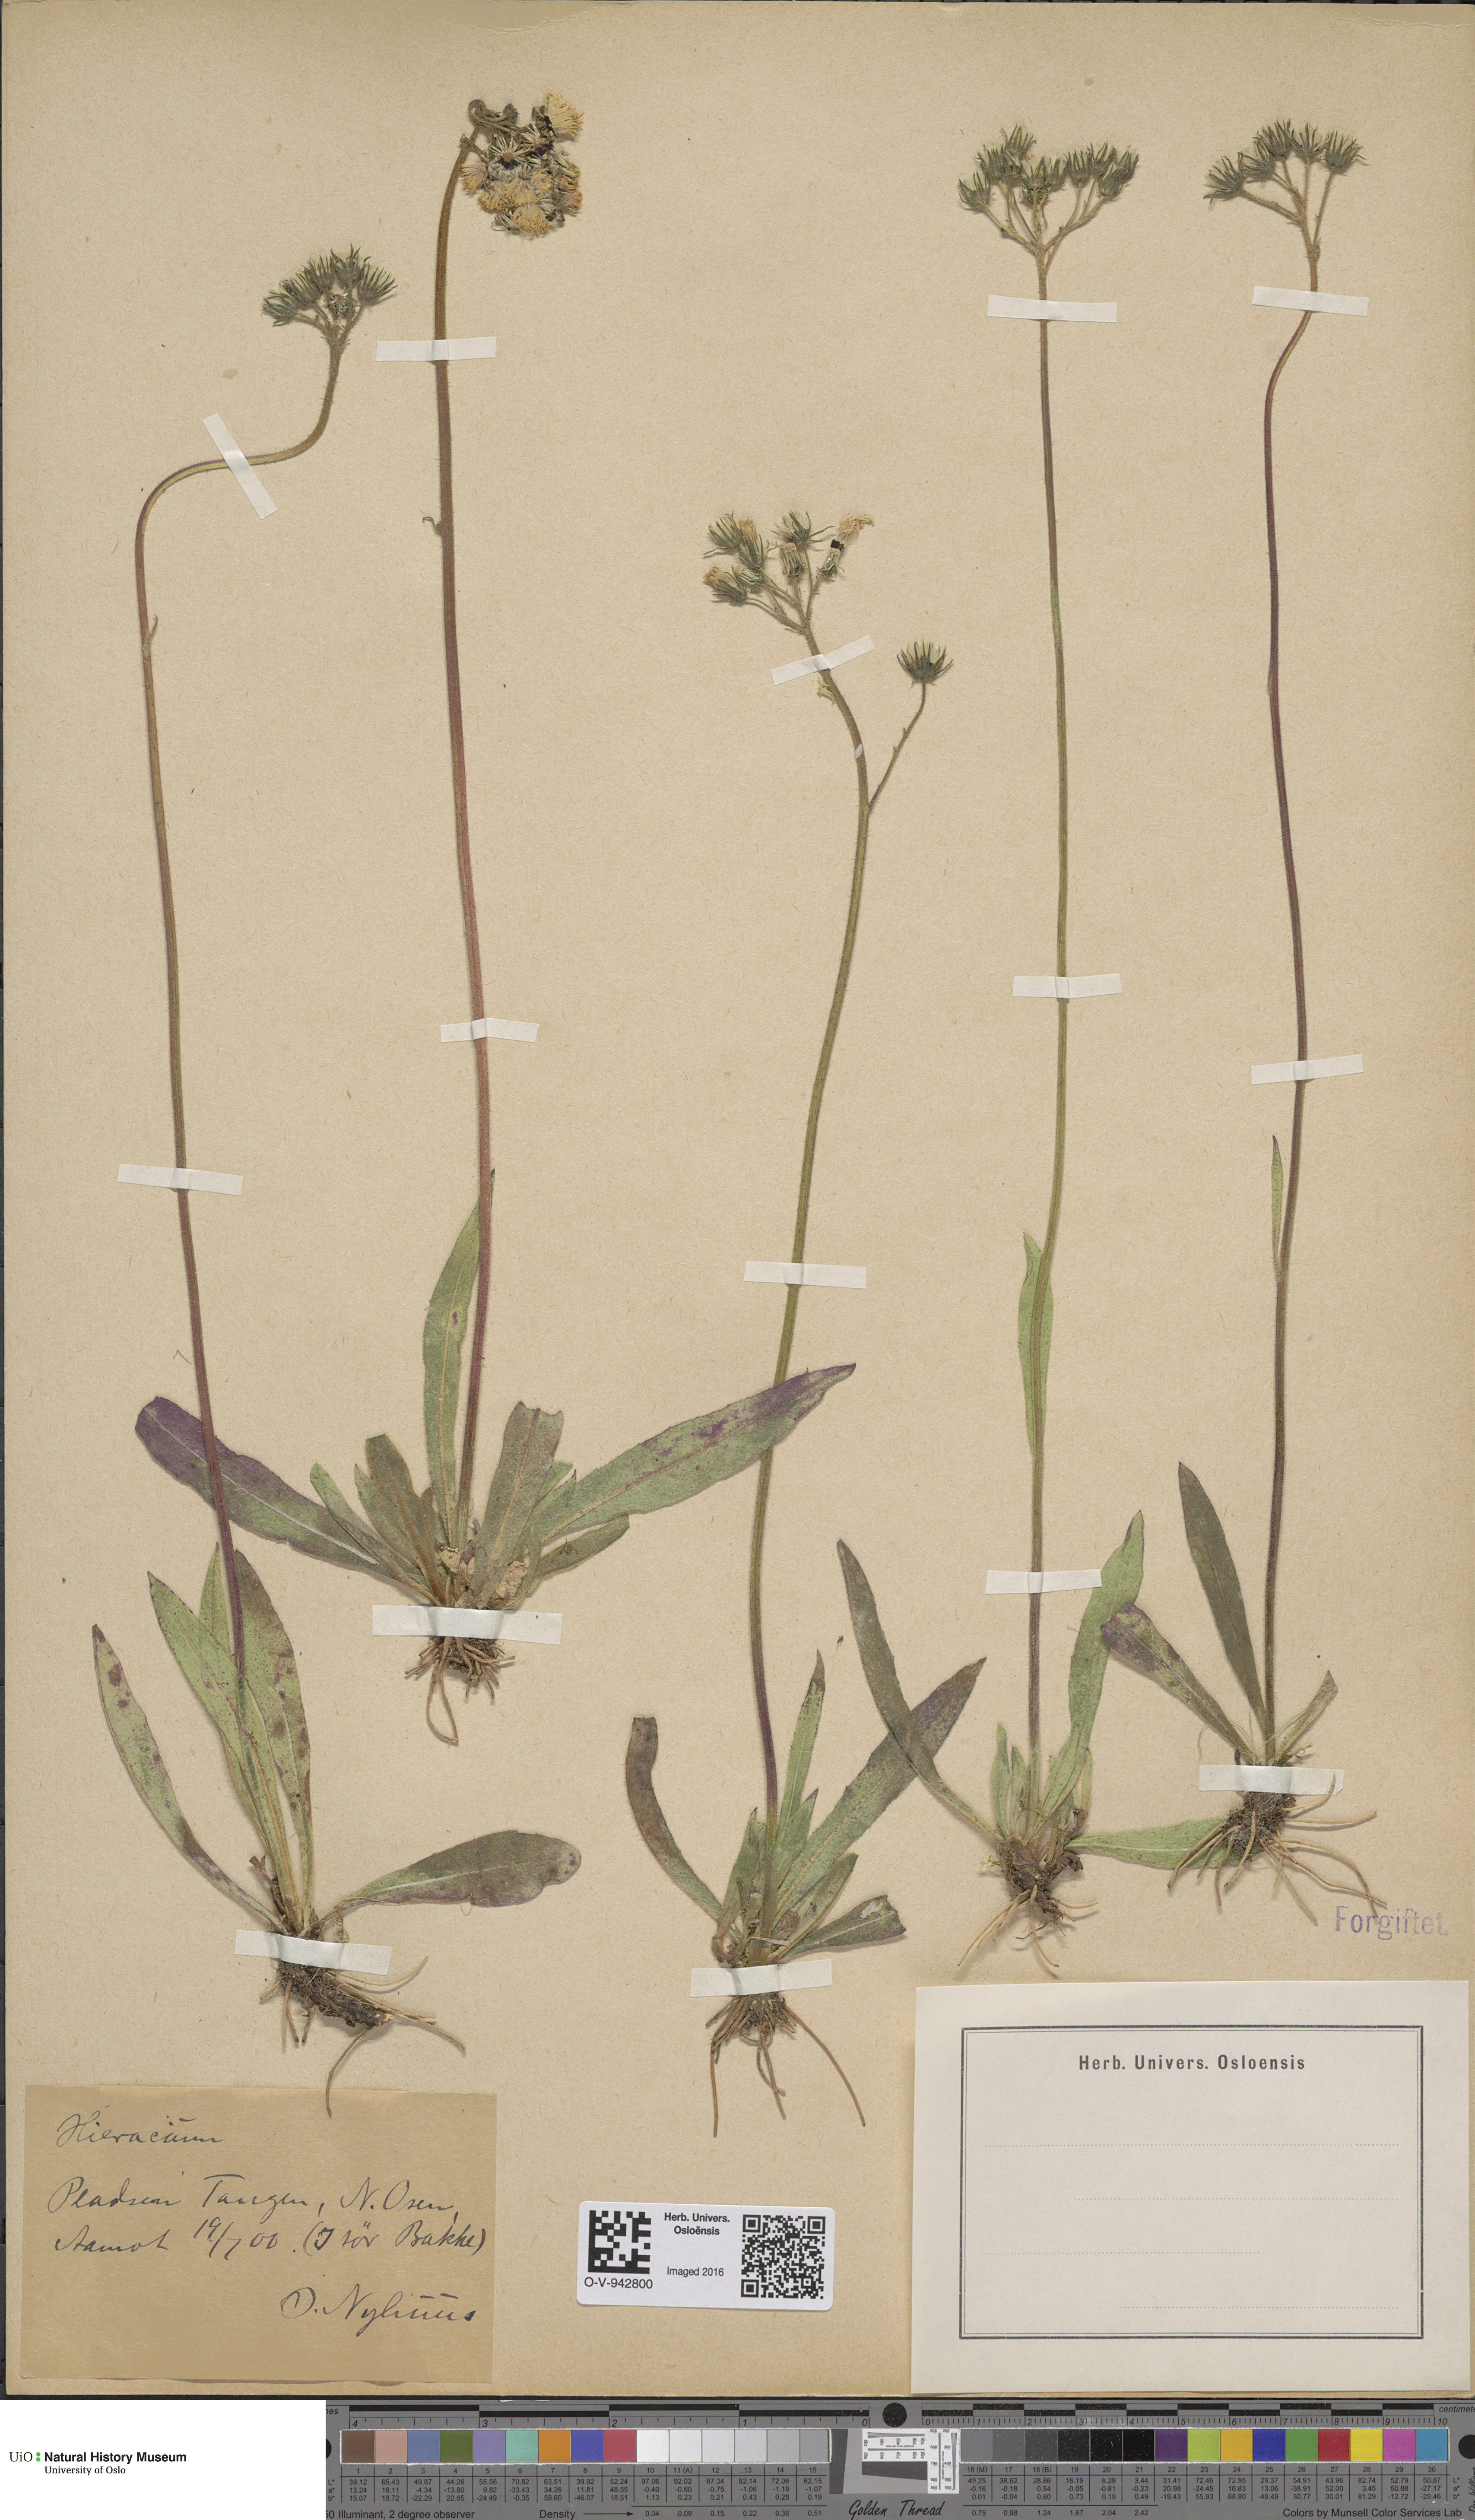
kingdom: Plantae
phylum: Tracheophyta
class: Magnoliopsida
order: Asterales
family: Asteraceae
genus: Pilosella
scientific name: Pilosella cymosa
